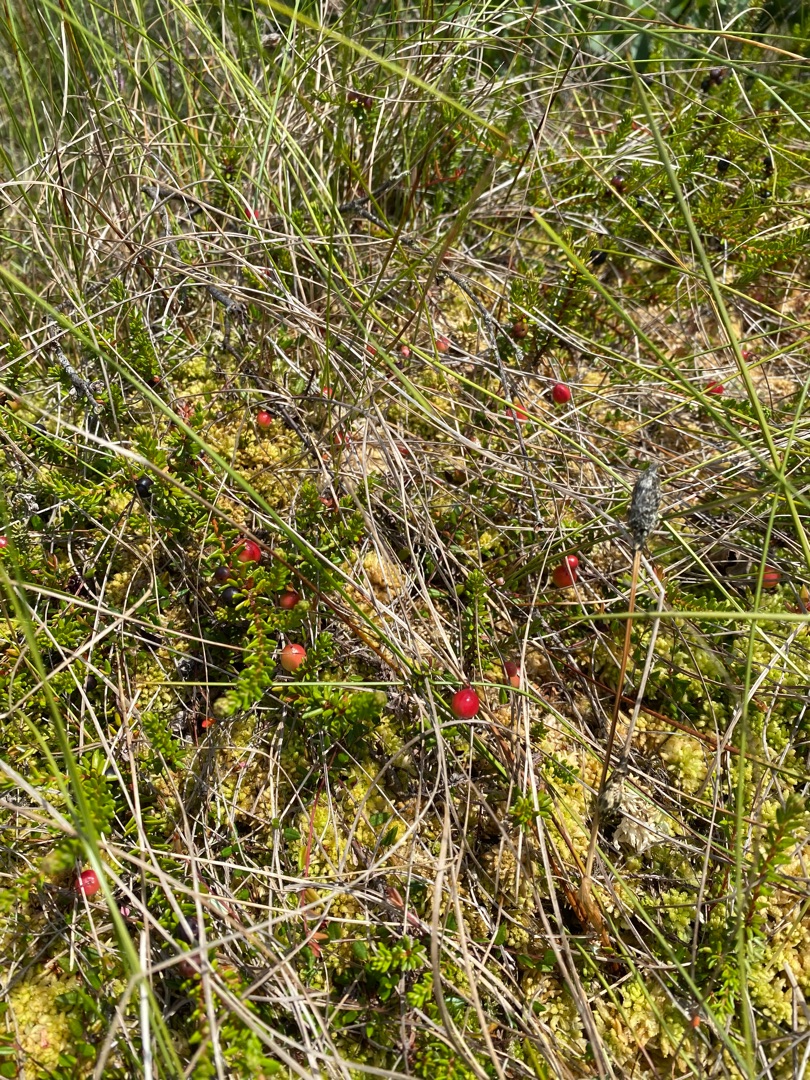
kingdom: Plantae
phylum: Tracheophyta
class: Magnoliopsida
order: Ericales
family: Ericaceae
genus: Empetrum
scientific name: Empetrum nigrum
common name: Revling
